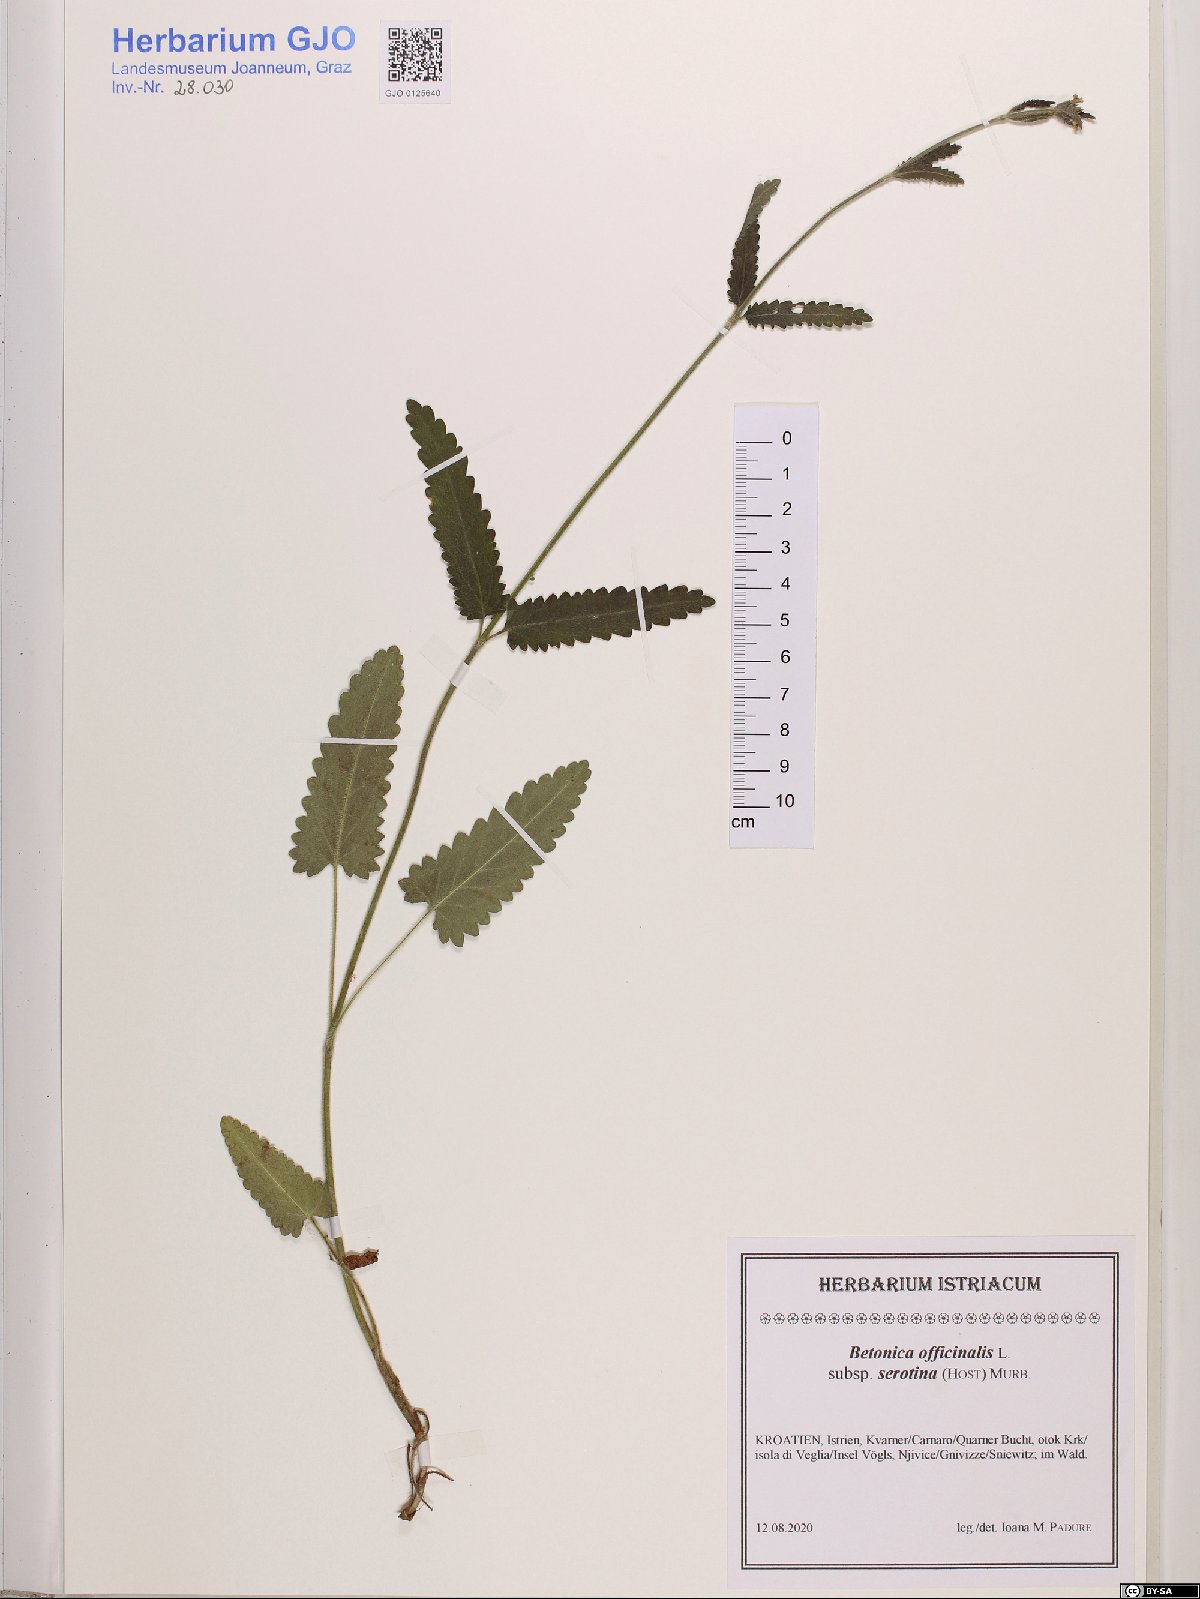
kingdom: Plantae
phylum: Tracheophyta
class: Magnoliopsida
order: Lamiales
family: Lamiaceae
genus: Betonica
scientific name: Betonica officinalis
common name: Bishop's-wort
